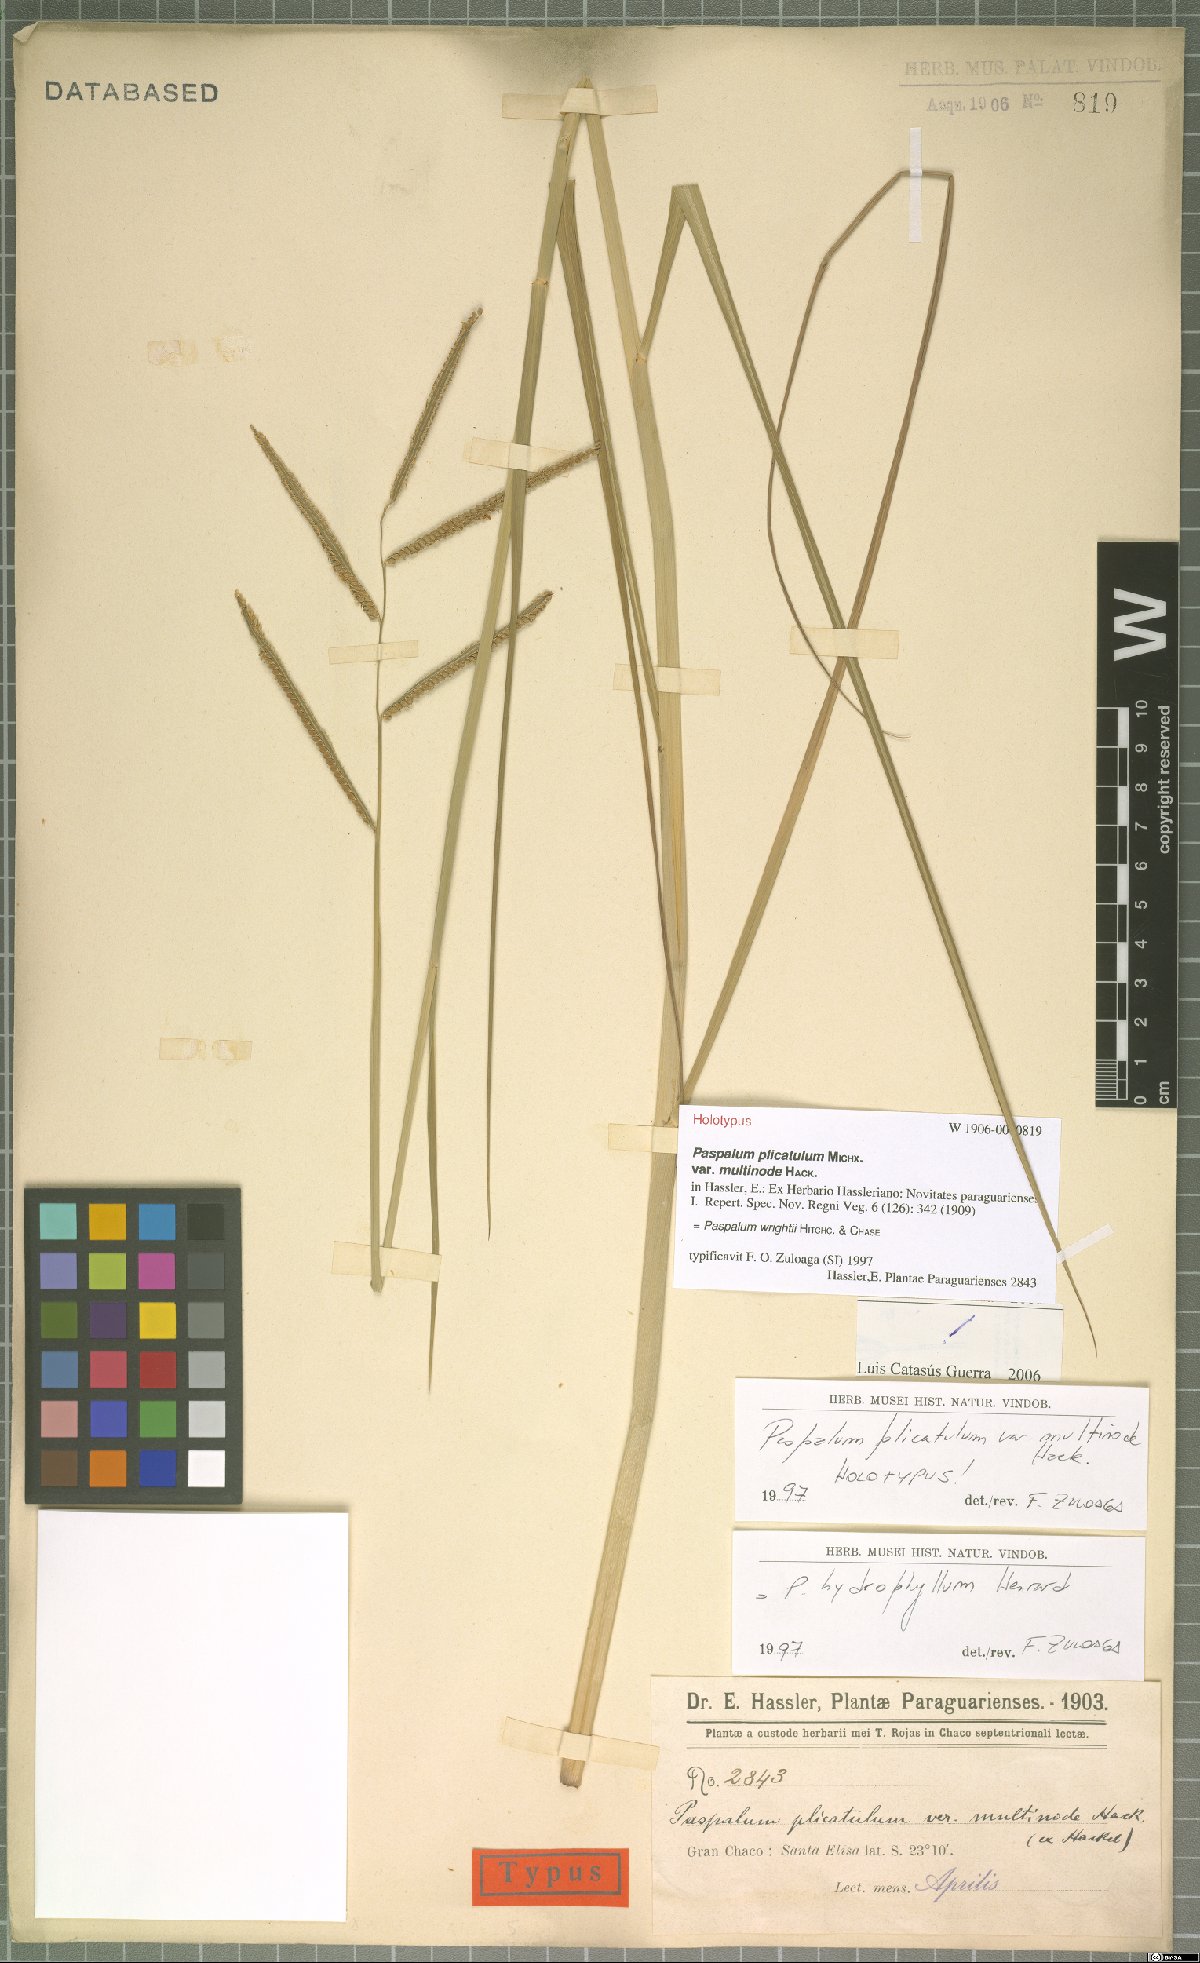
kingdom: Plantae
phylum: Tracheophyta
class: Liliopsida
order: Poales
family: Poaceae
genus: Paspalum
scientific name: Paspalum wrightii
